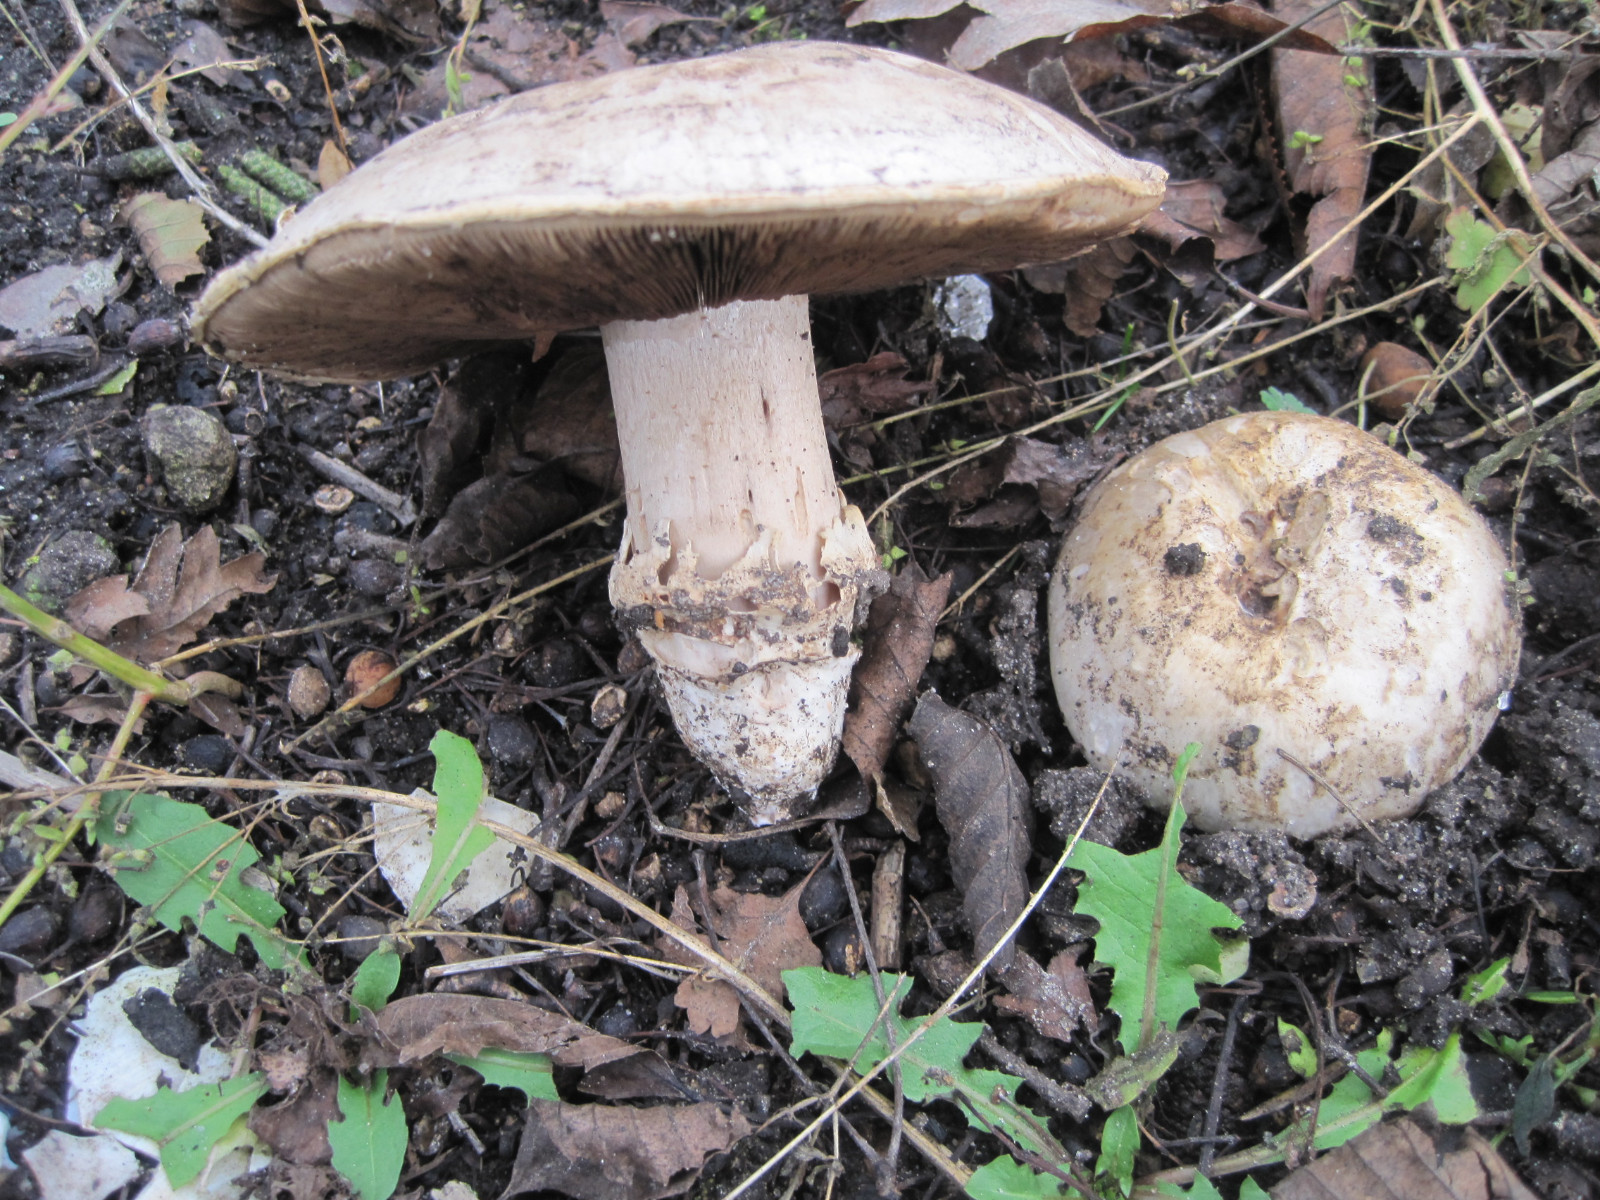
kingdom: Fungi
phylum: Basidiomycota
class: Agaricomycetes
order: Agaricales
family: Agaricaceae
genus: Agaricus
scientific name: Agaricus bitorquis
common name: vej-champignon
